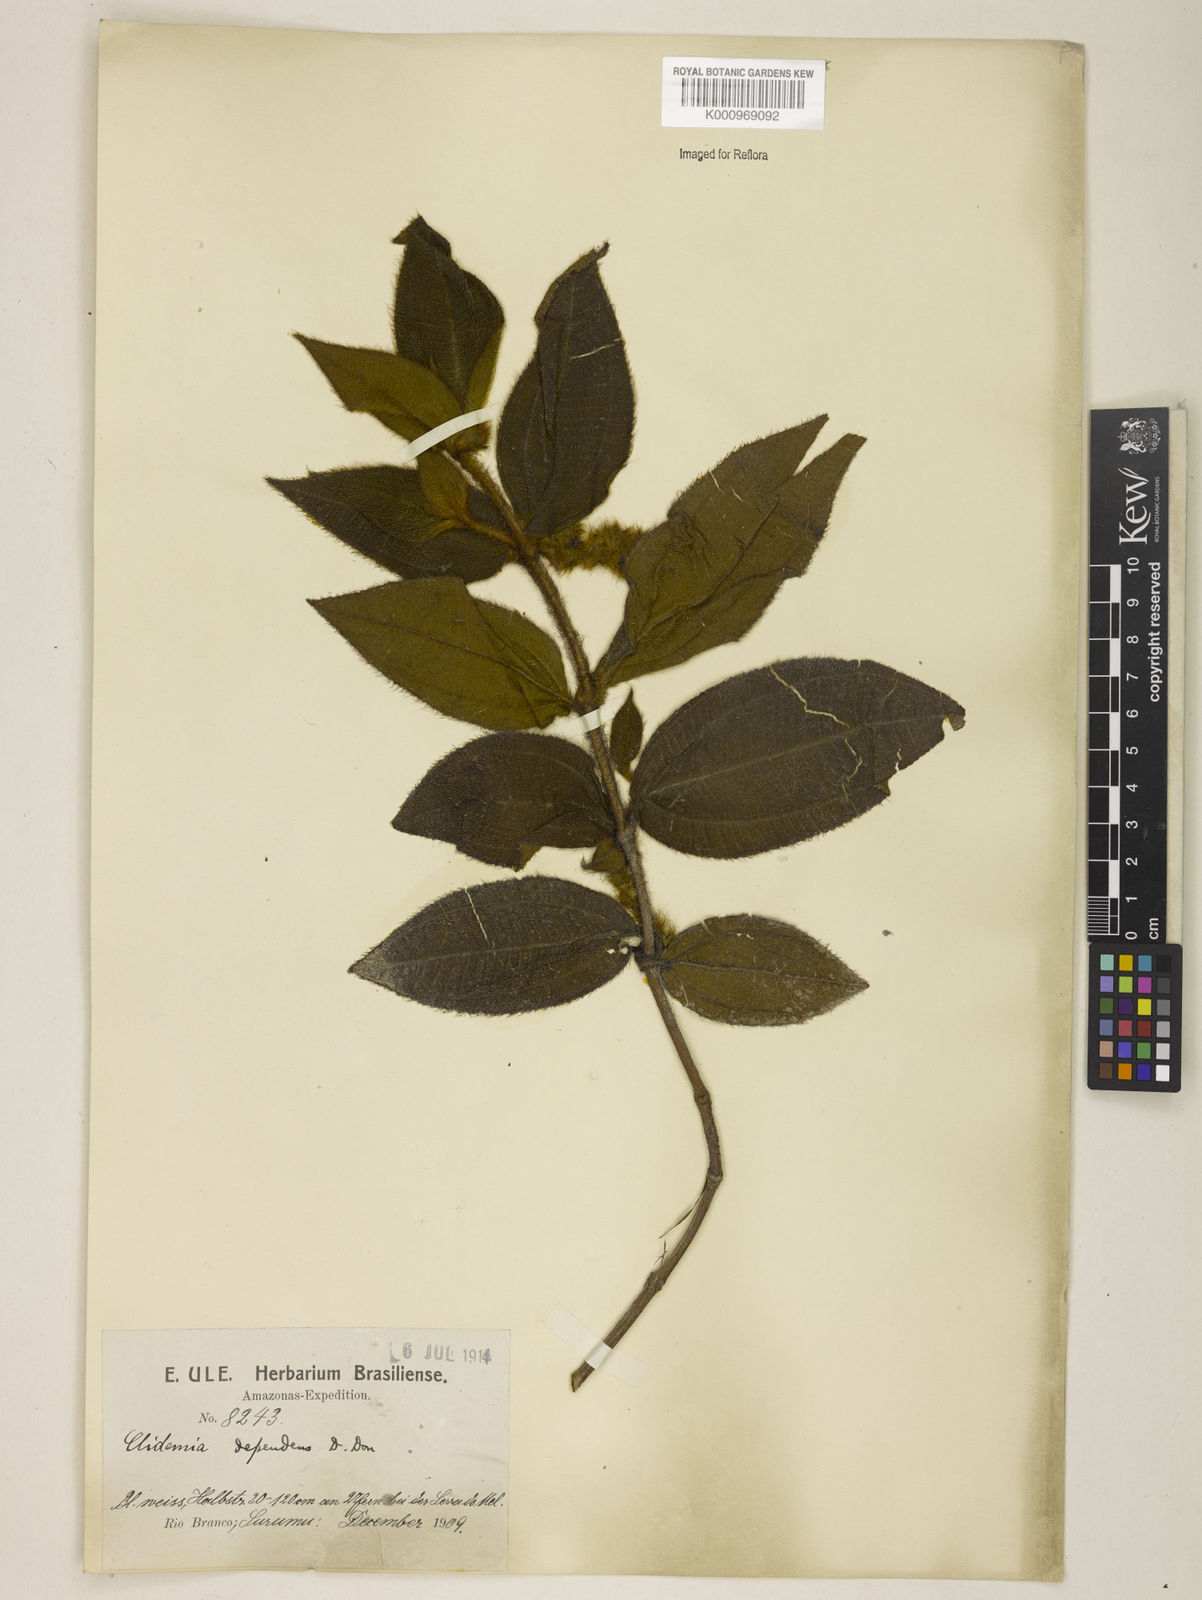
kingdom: Plantae
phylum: Tracheophyta
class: Magnoliopsida
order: Myrtales
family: Melastomataceae
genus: Miconia
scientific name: Miconia dependens
